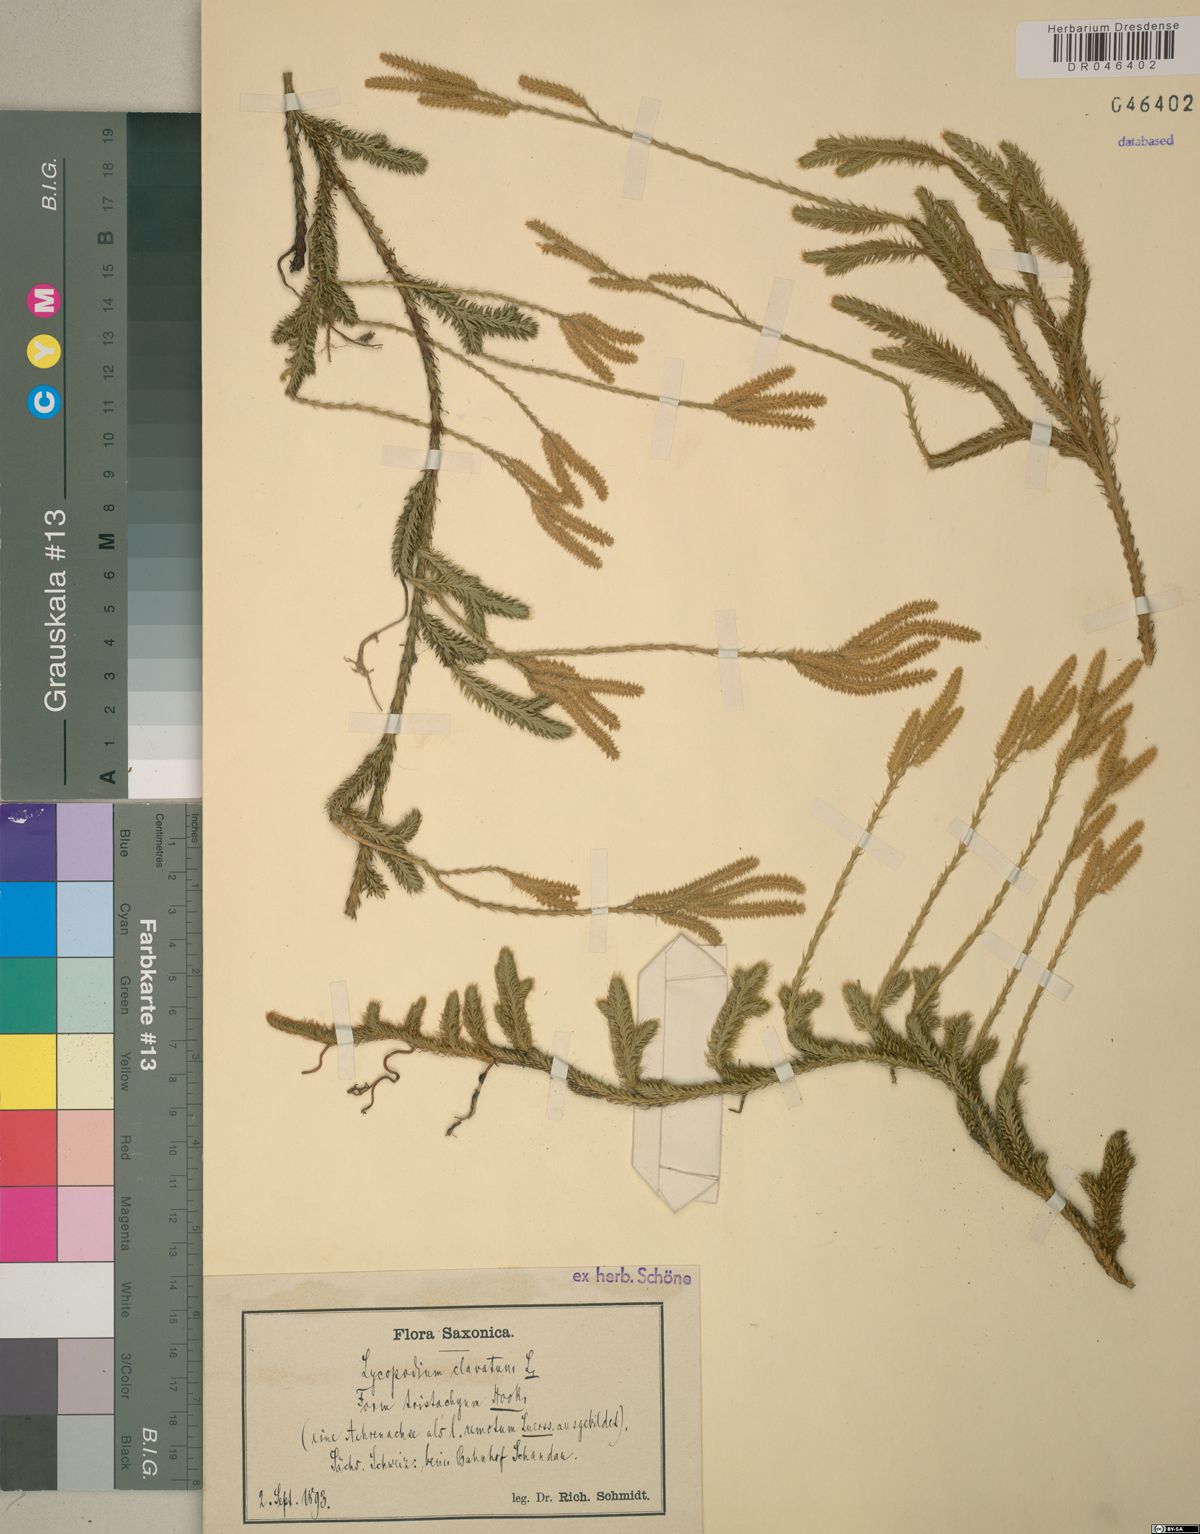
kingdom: Plantae
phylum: Tracheophyta
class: Lycopodiopsida
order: Lycopodiales
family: Lycopodiaceae
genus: Lycopodium
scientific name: Lycopodium clavatum
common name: Stag's-horn clubmoss
